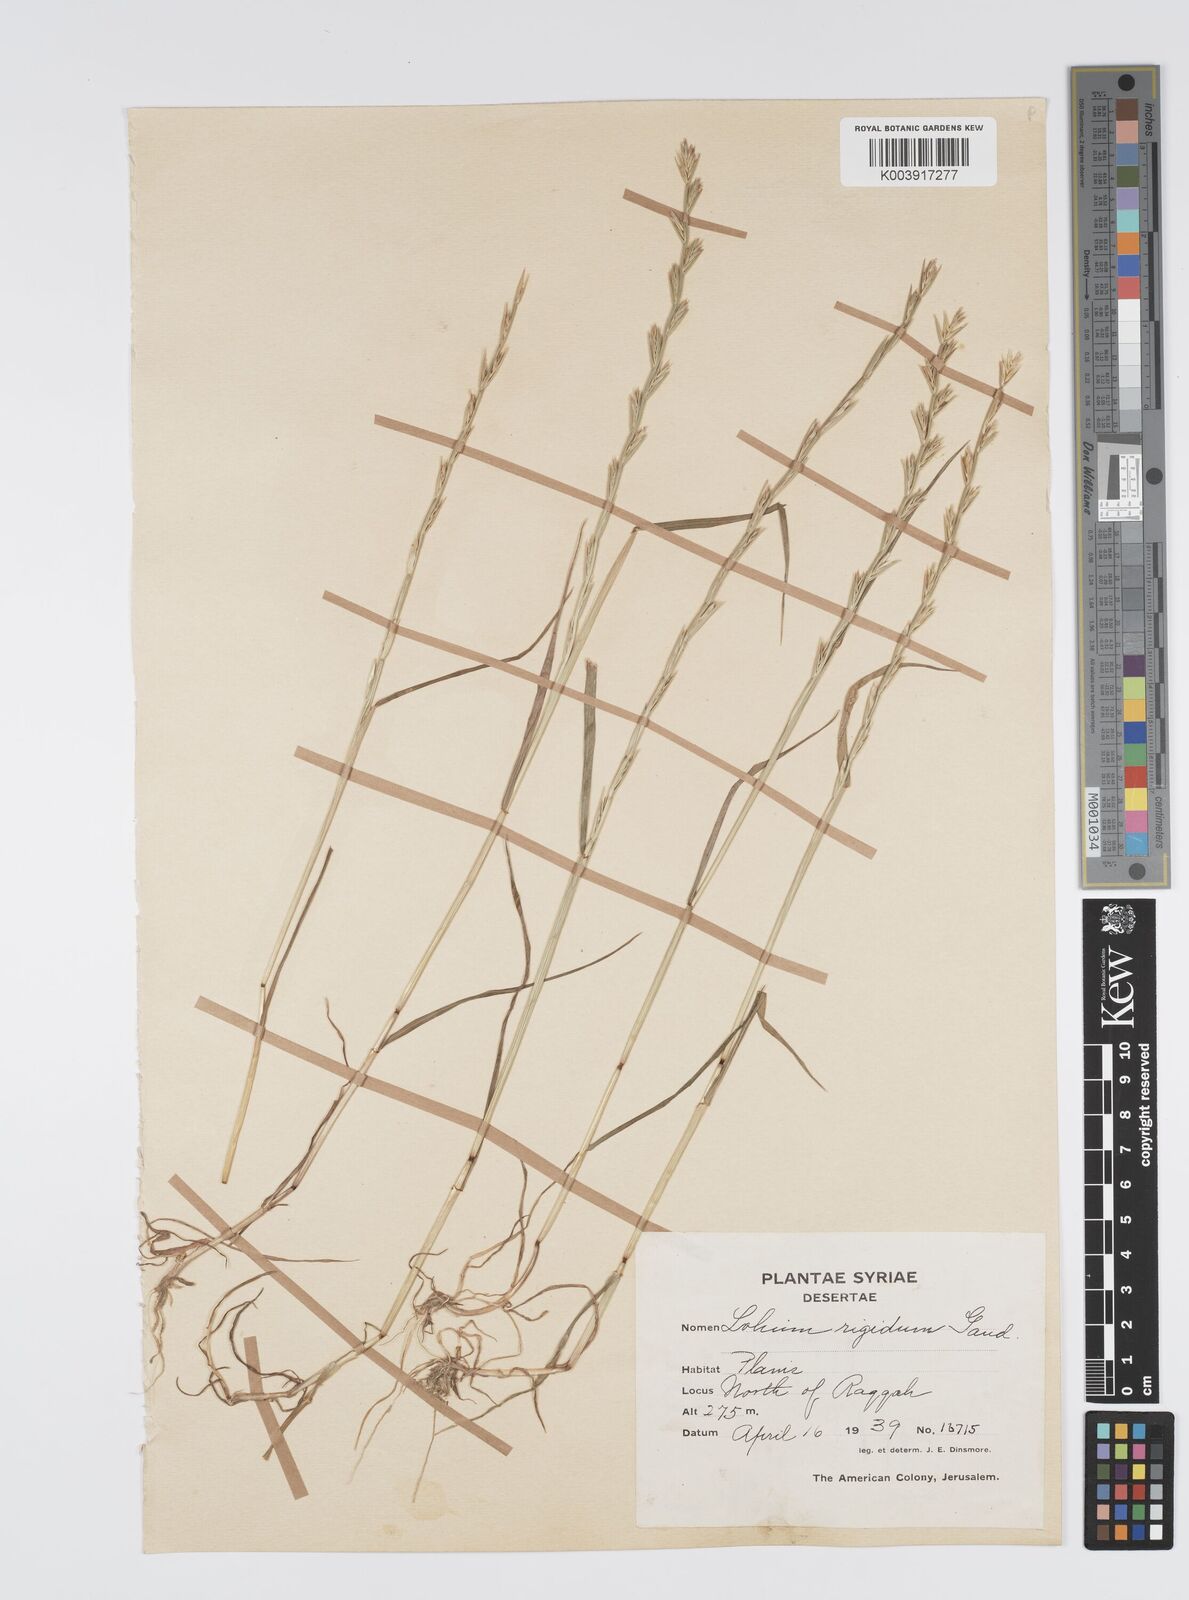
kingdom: Plantae
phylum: Tracheophyta
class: Liliopsida
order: Poales
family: Poaceae
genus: Lolium
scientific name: Lolium rigidum
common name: Wimmera ryegrass
